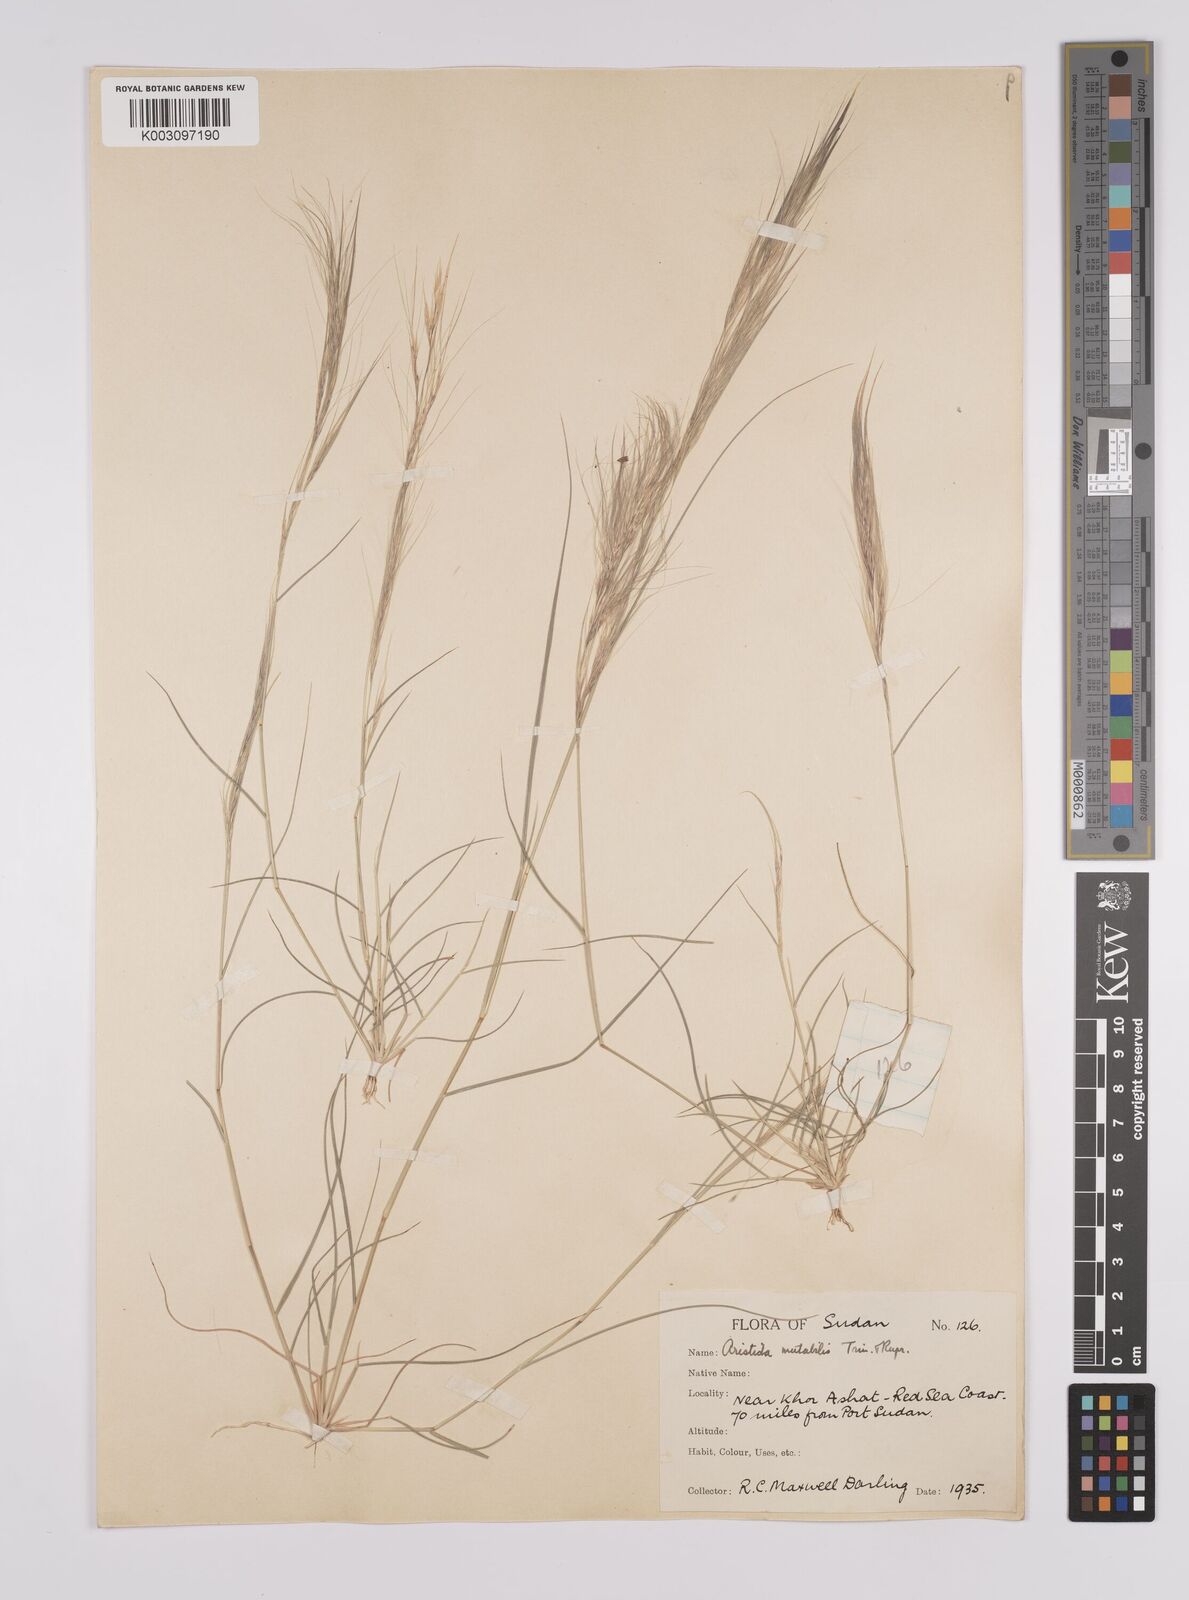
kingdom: Plantae
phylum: Tracheophyta
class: Liliopsida
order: Poales
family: Poaceae
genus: Aristida
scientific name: Aristida mutabilis
